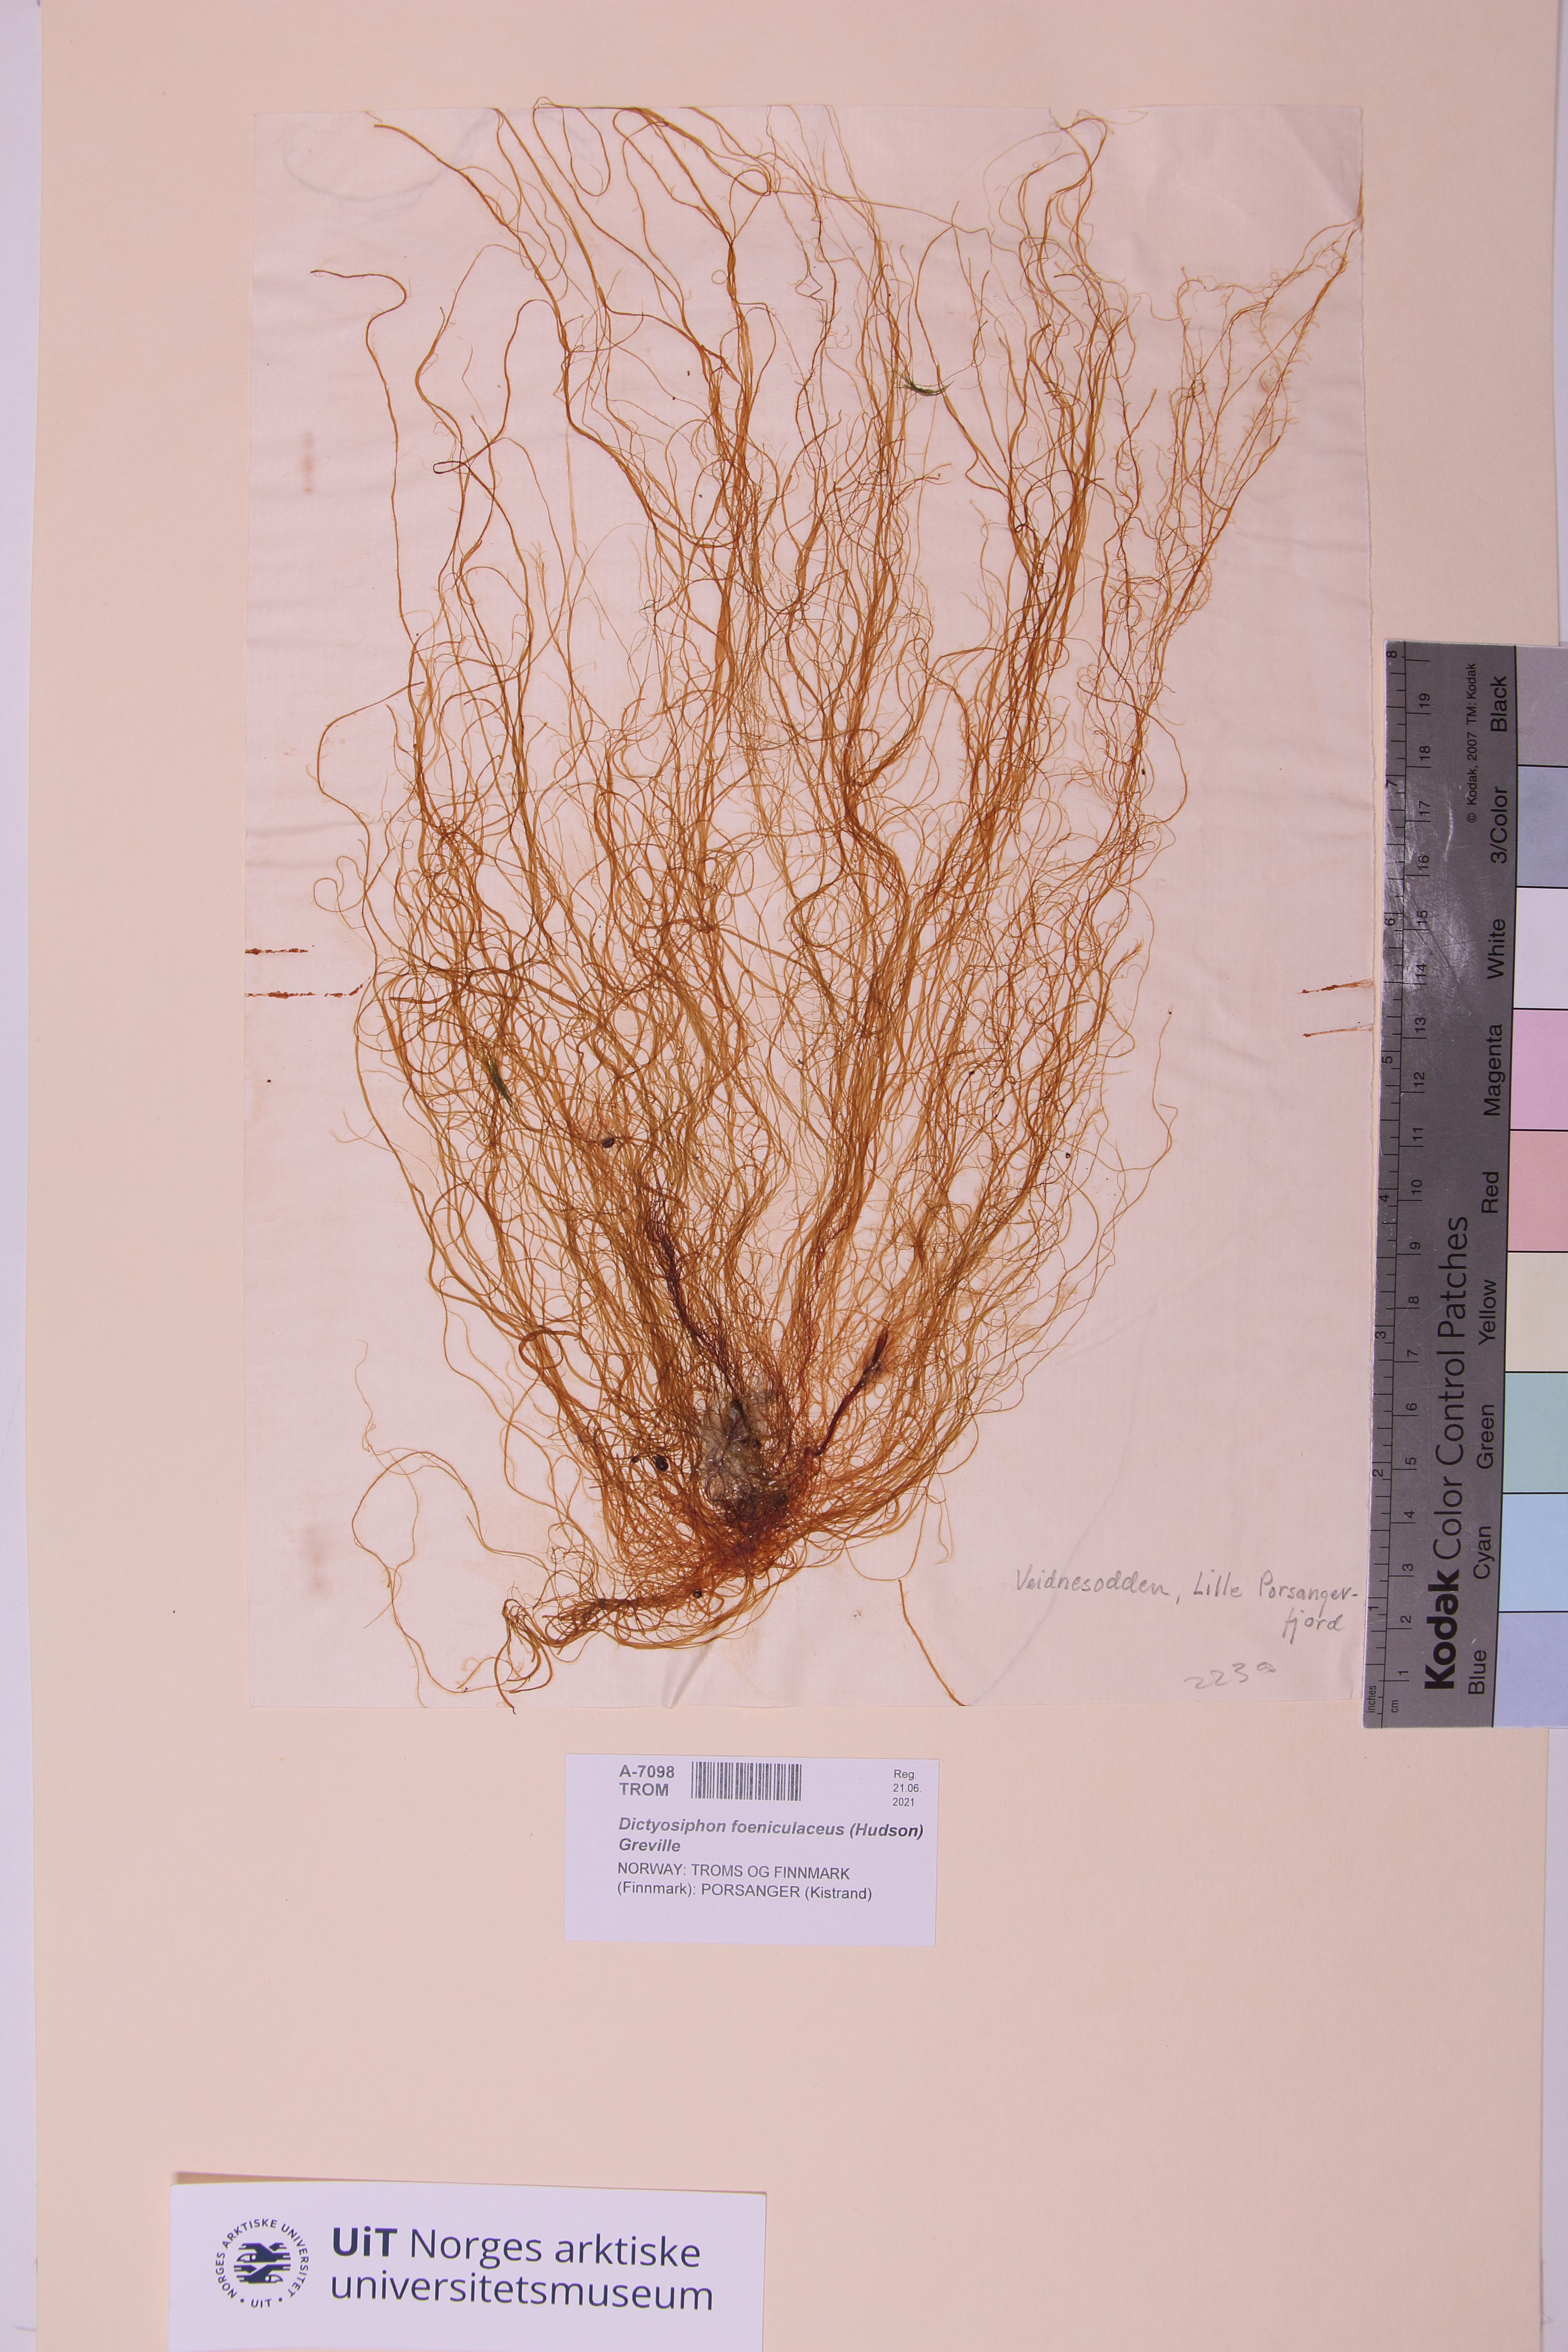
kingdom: Chromista
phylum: Ochrophyta
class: Phaeophyceae
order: Ectocarpales
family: Chordariaceae
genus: Dictyosiphon
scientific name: Dictyosiphon foeniculaceus
